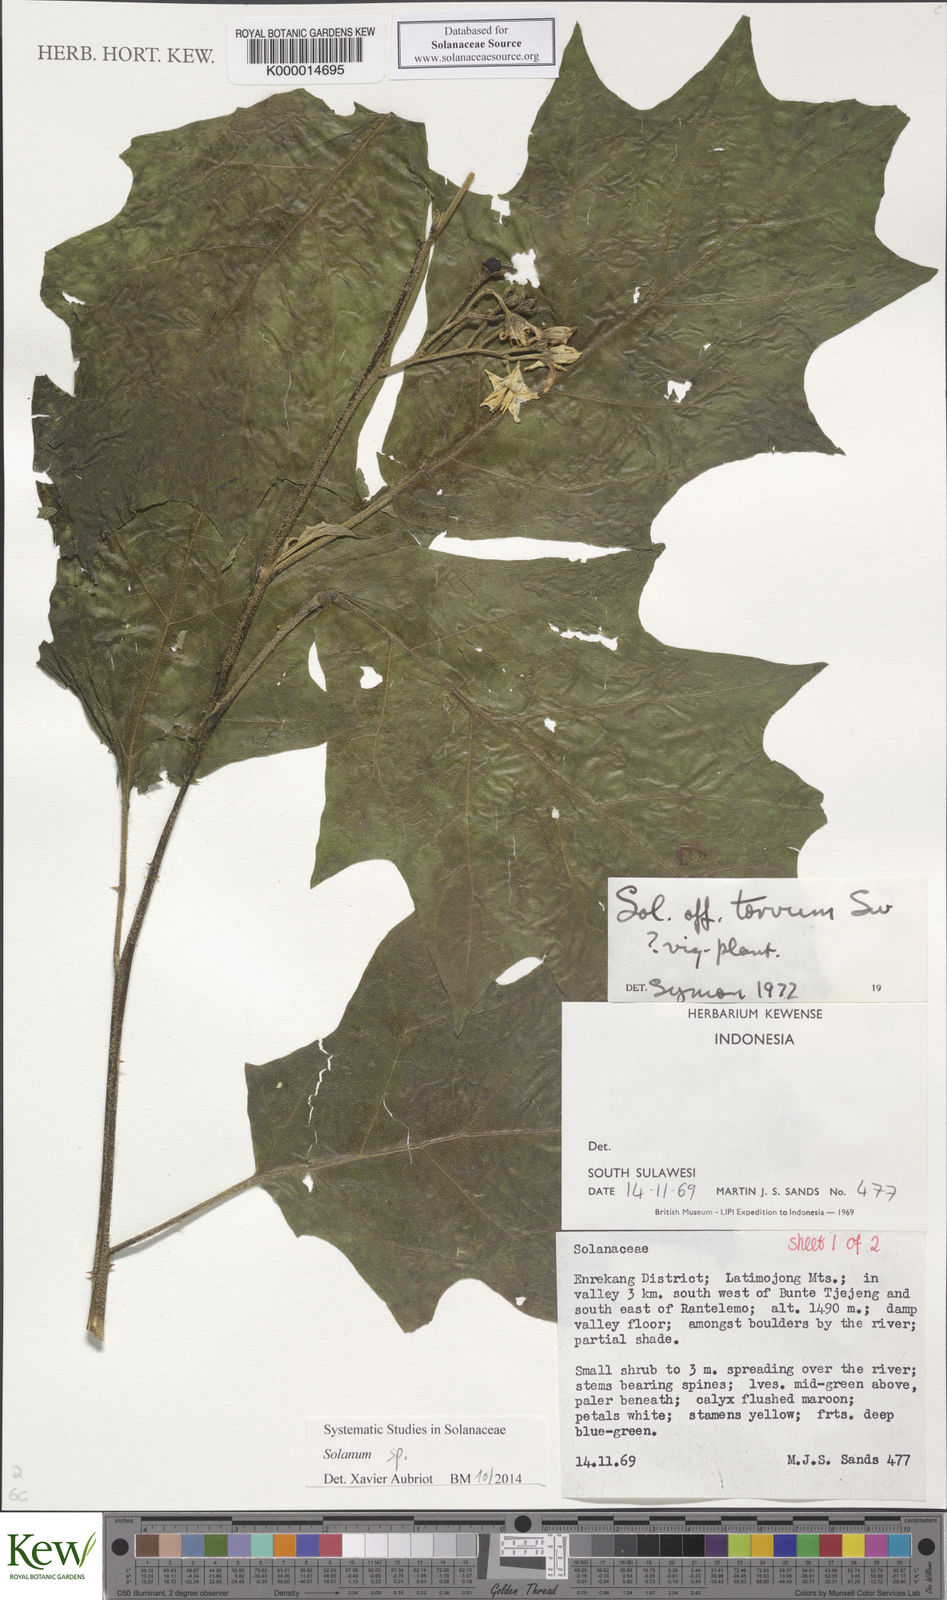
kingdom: Plantae
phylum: Tracheophyta
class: Magnoliopsida
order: Solanales
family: Solanaceae
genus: Solanum
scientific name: Solanum pubescens
